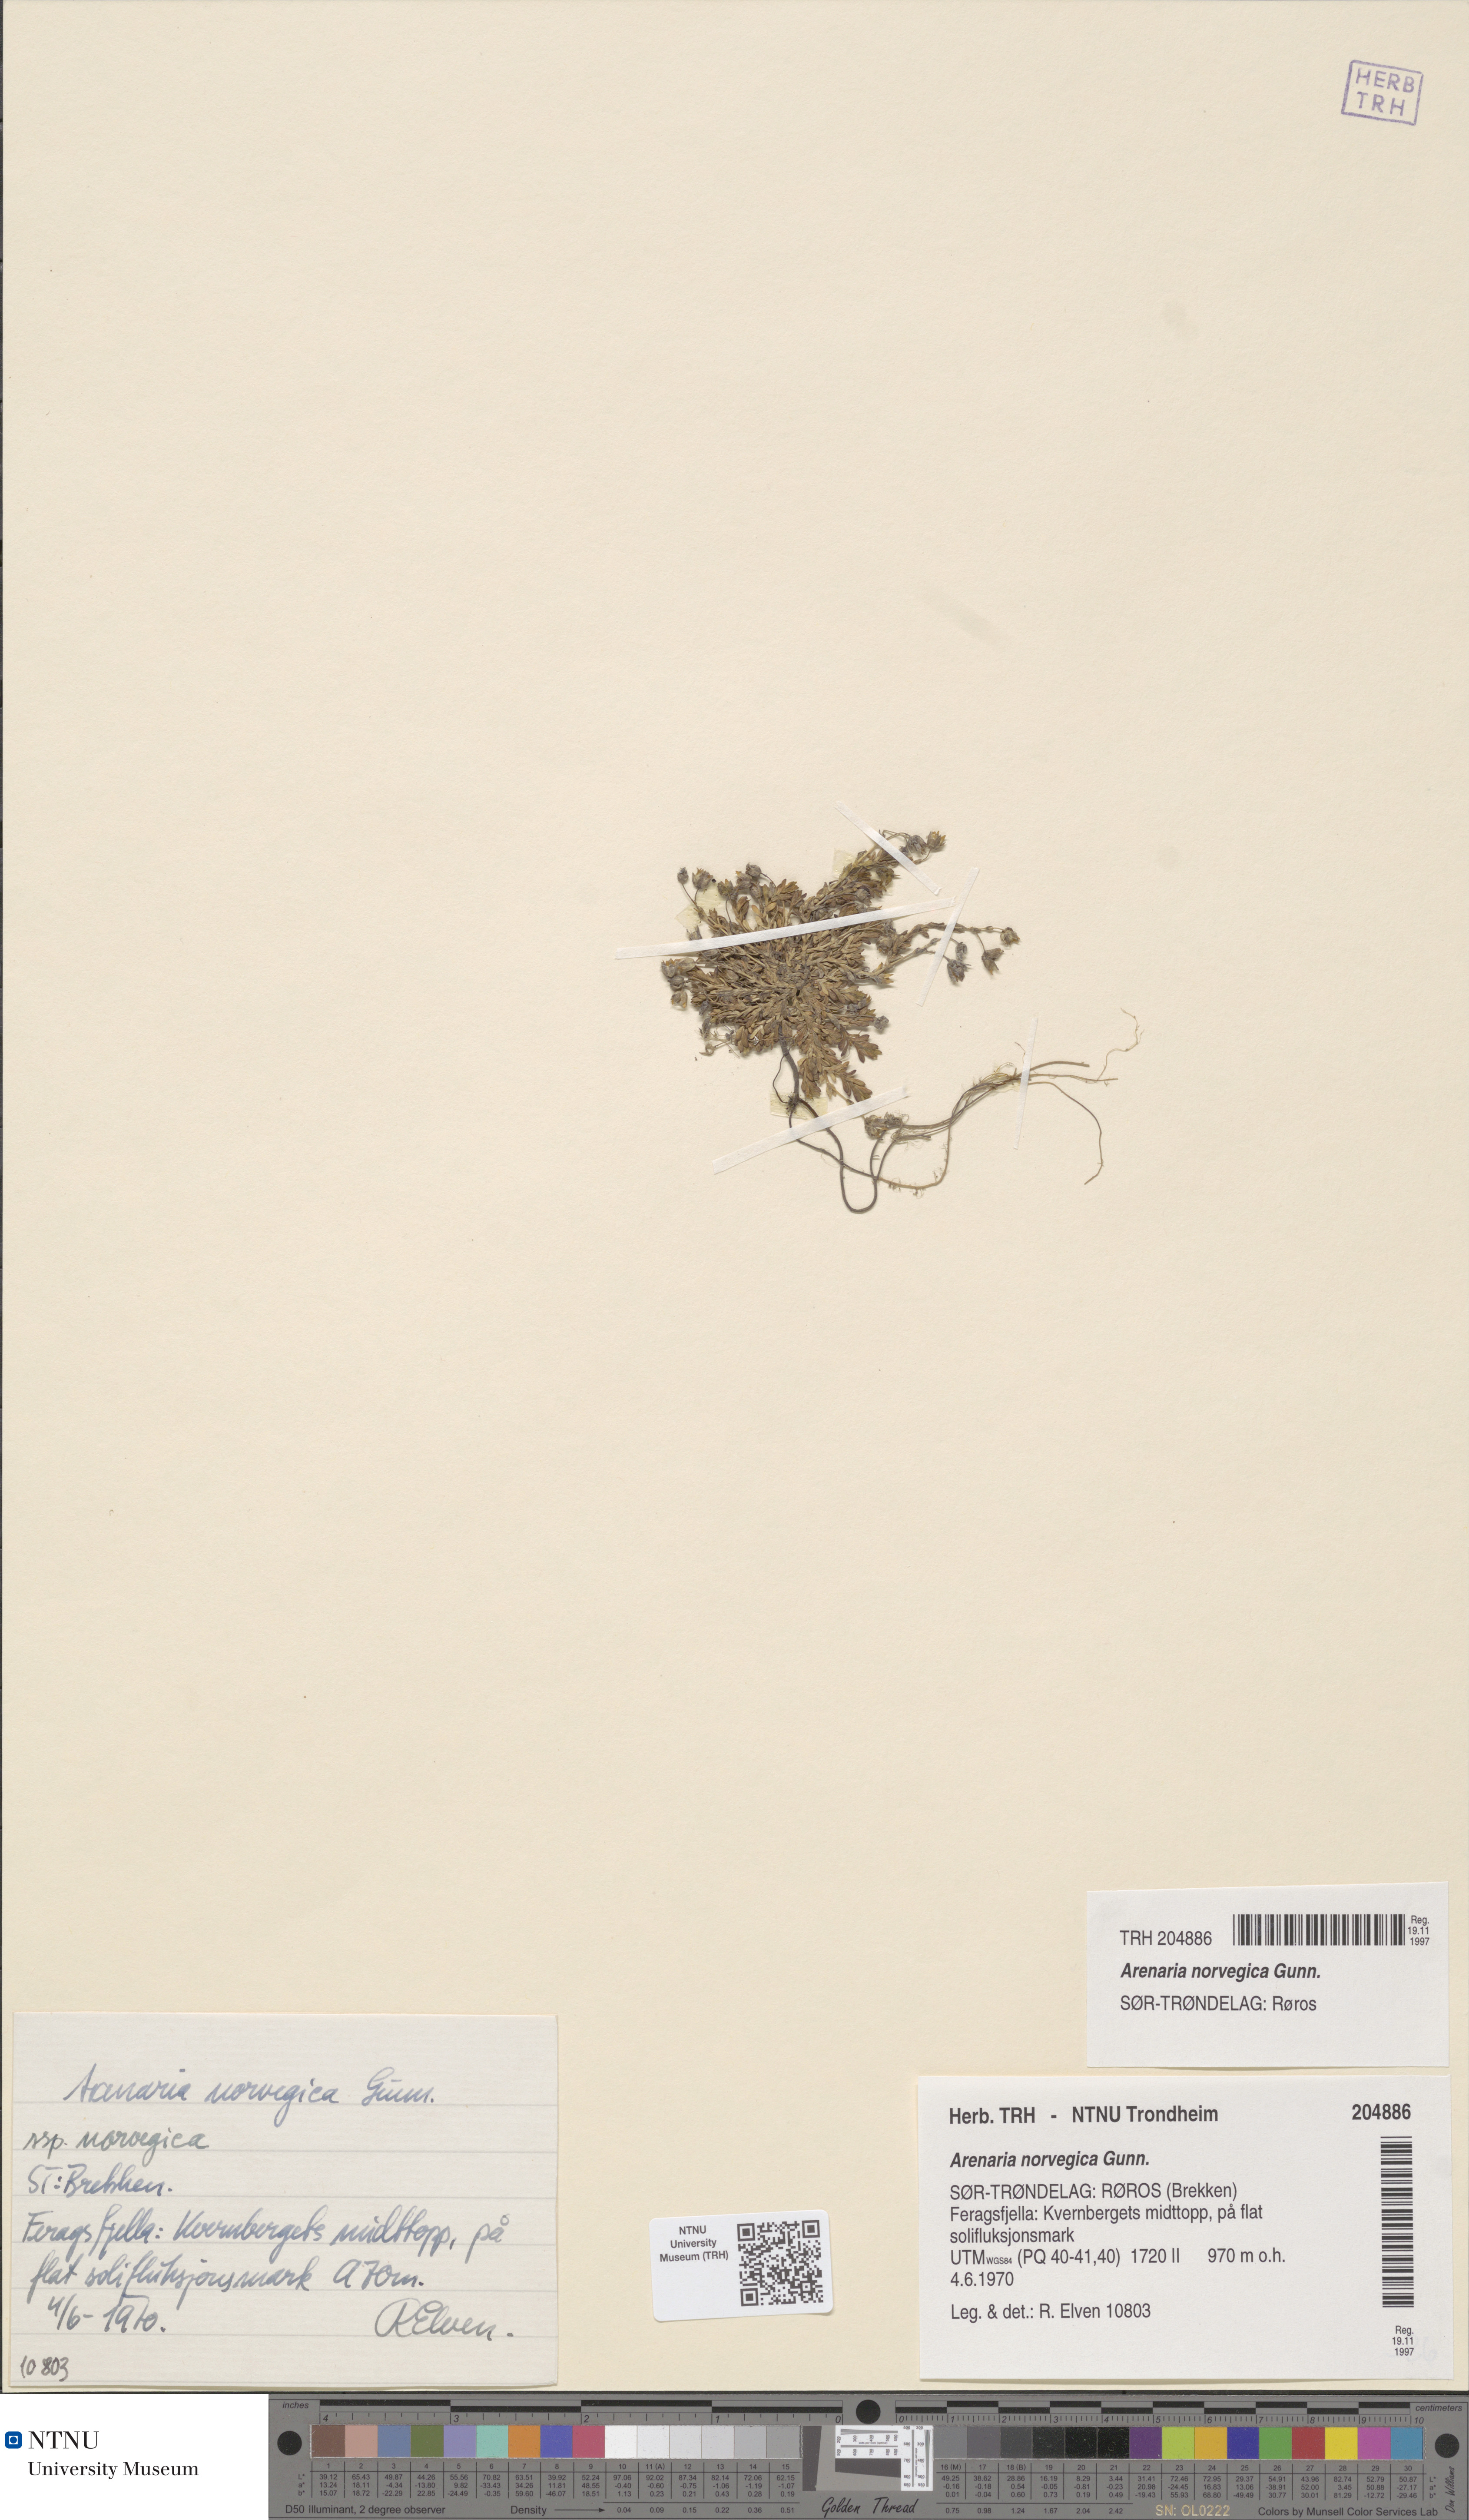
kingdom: Plantae
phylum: Tracheophyta
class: Magnoliopsida
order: Caryophyllales
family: Caryophyllaceae
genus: Arenaria
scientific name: Arenaria norvegica
